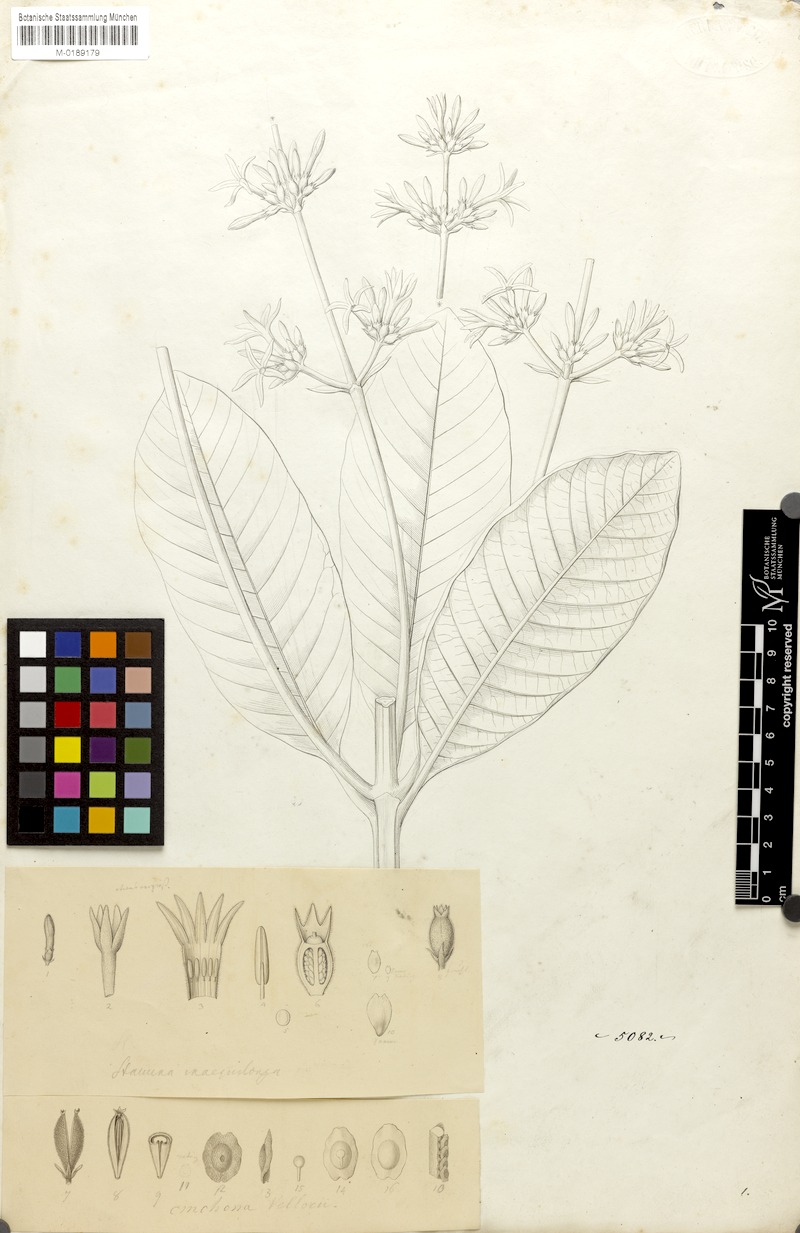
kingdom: Plantae
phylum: Tracheophyta
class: Magnoliopsida
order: Gentianales
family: Rubiaceae
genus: Remijia
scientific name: Remijia ferruginea
